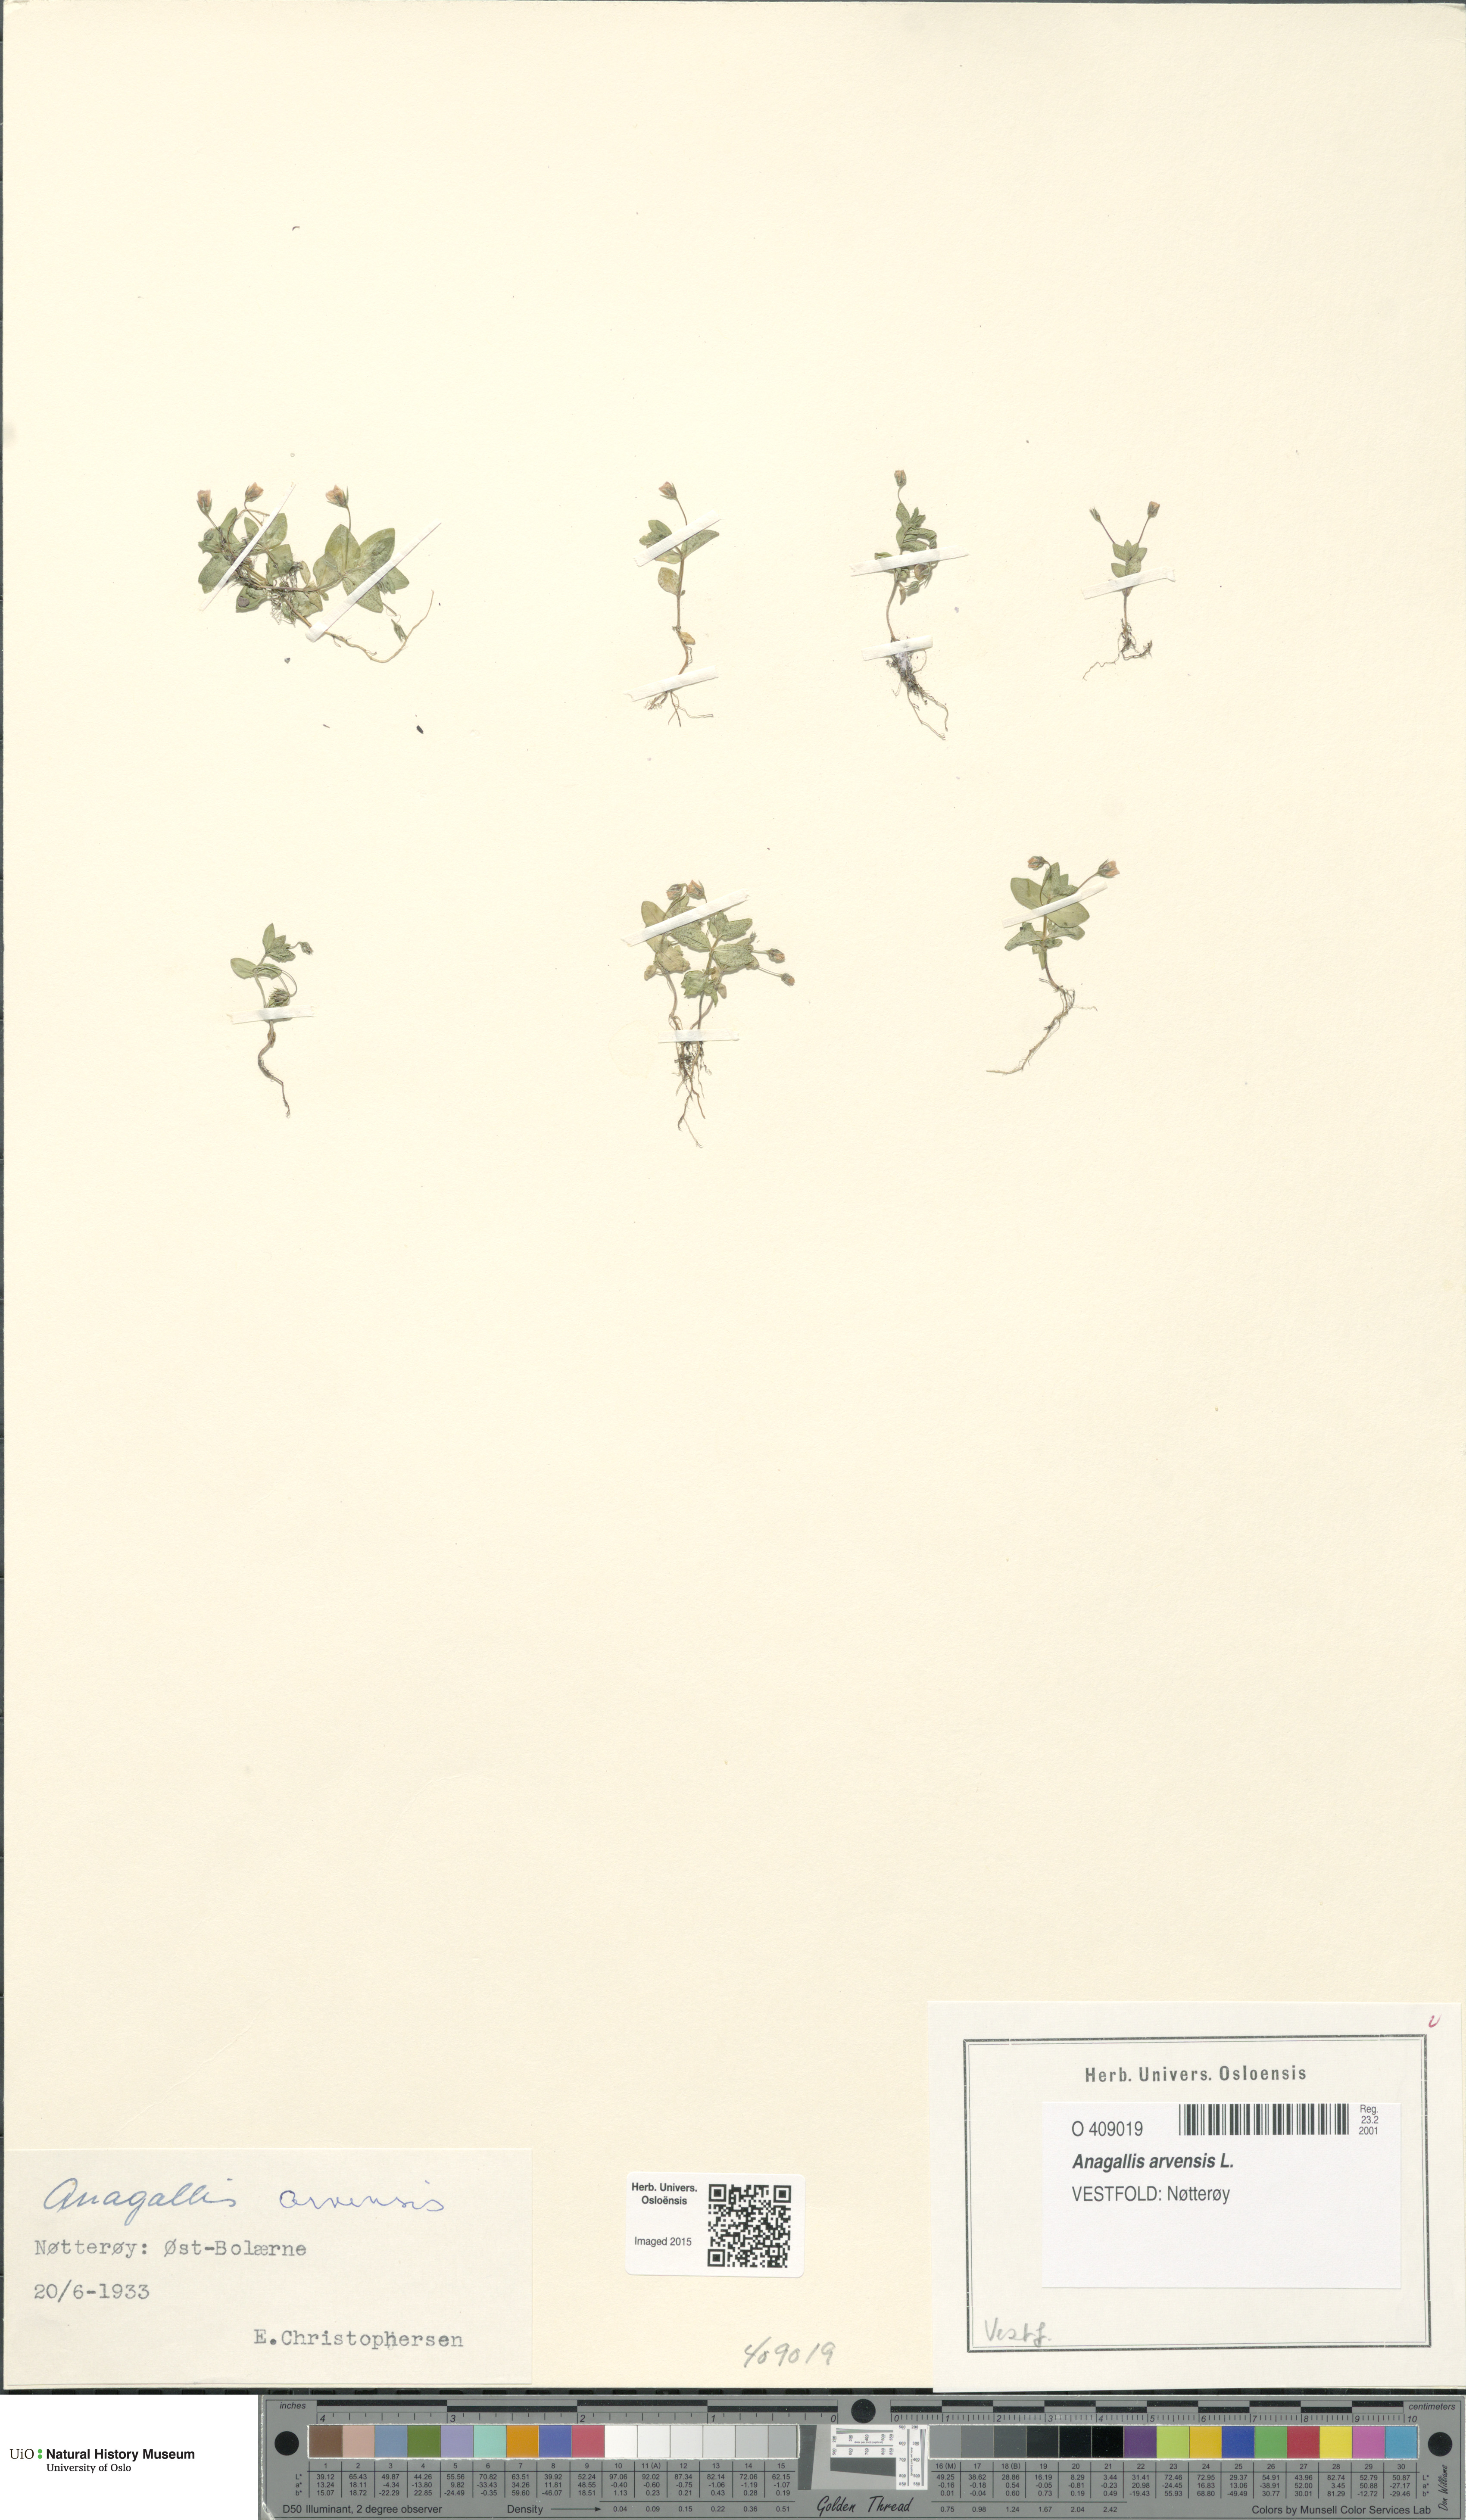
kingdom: Plantae
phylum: Tracheophyta
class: Magnoliopsida
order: Ericales
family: Primulaceae
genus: Lysimachia
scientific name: Lysimachia arvensis
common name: Scarlet pimpernel
